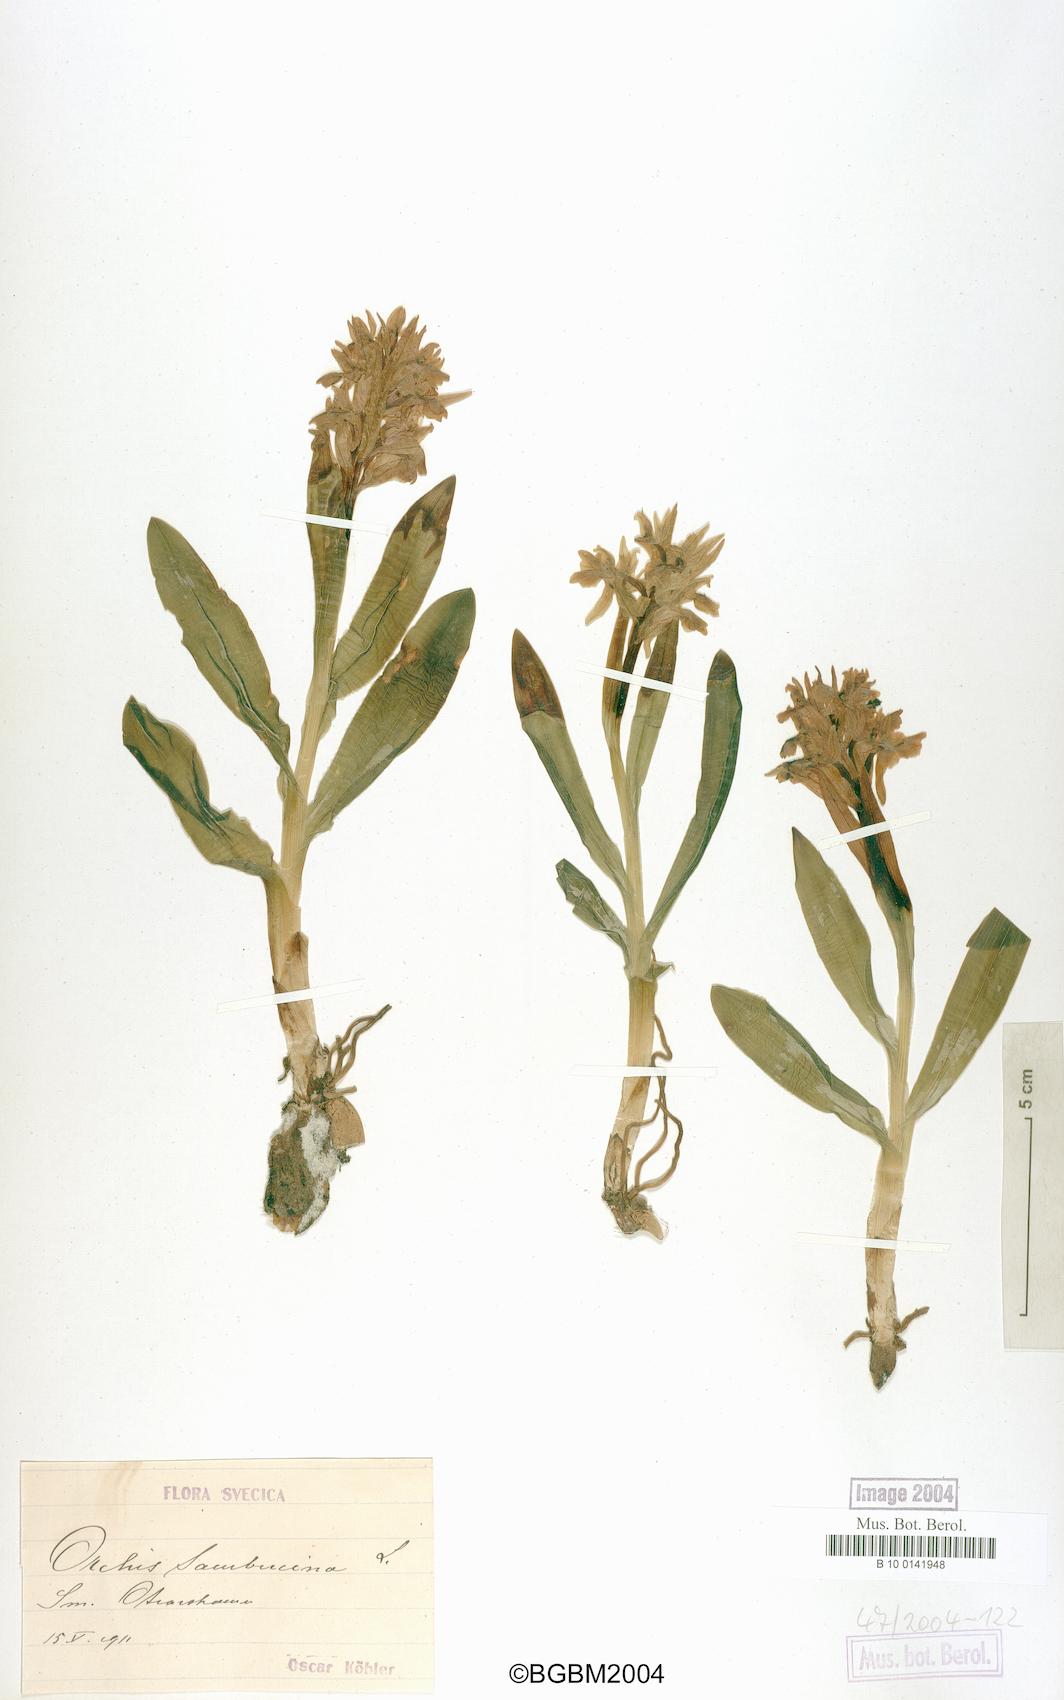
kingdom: Plantae
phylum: Tracheophyta
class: Liliopsida
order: Asparagales
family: Orchidaceae
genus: Dactylorhiza
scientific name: Dactylorhiza sambucina
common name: Elder-flowered orchid
